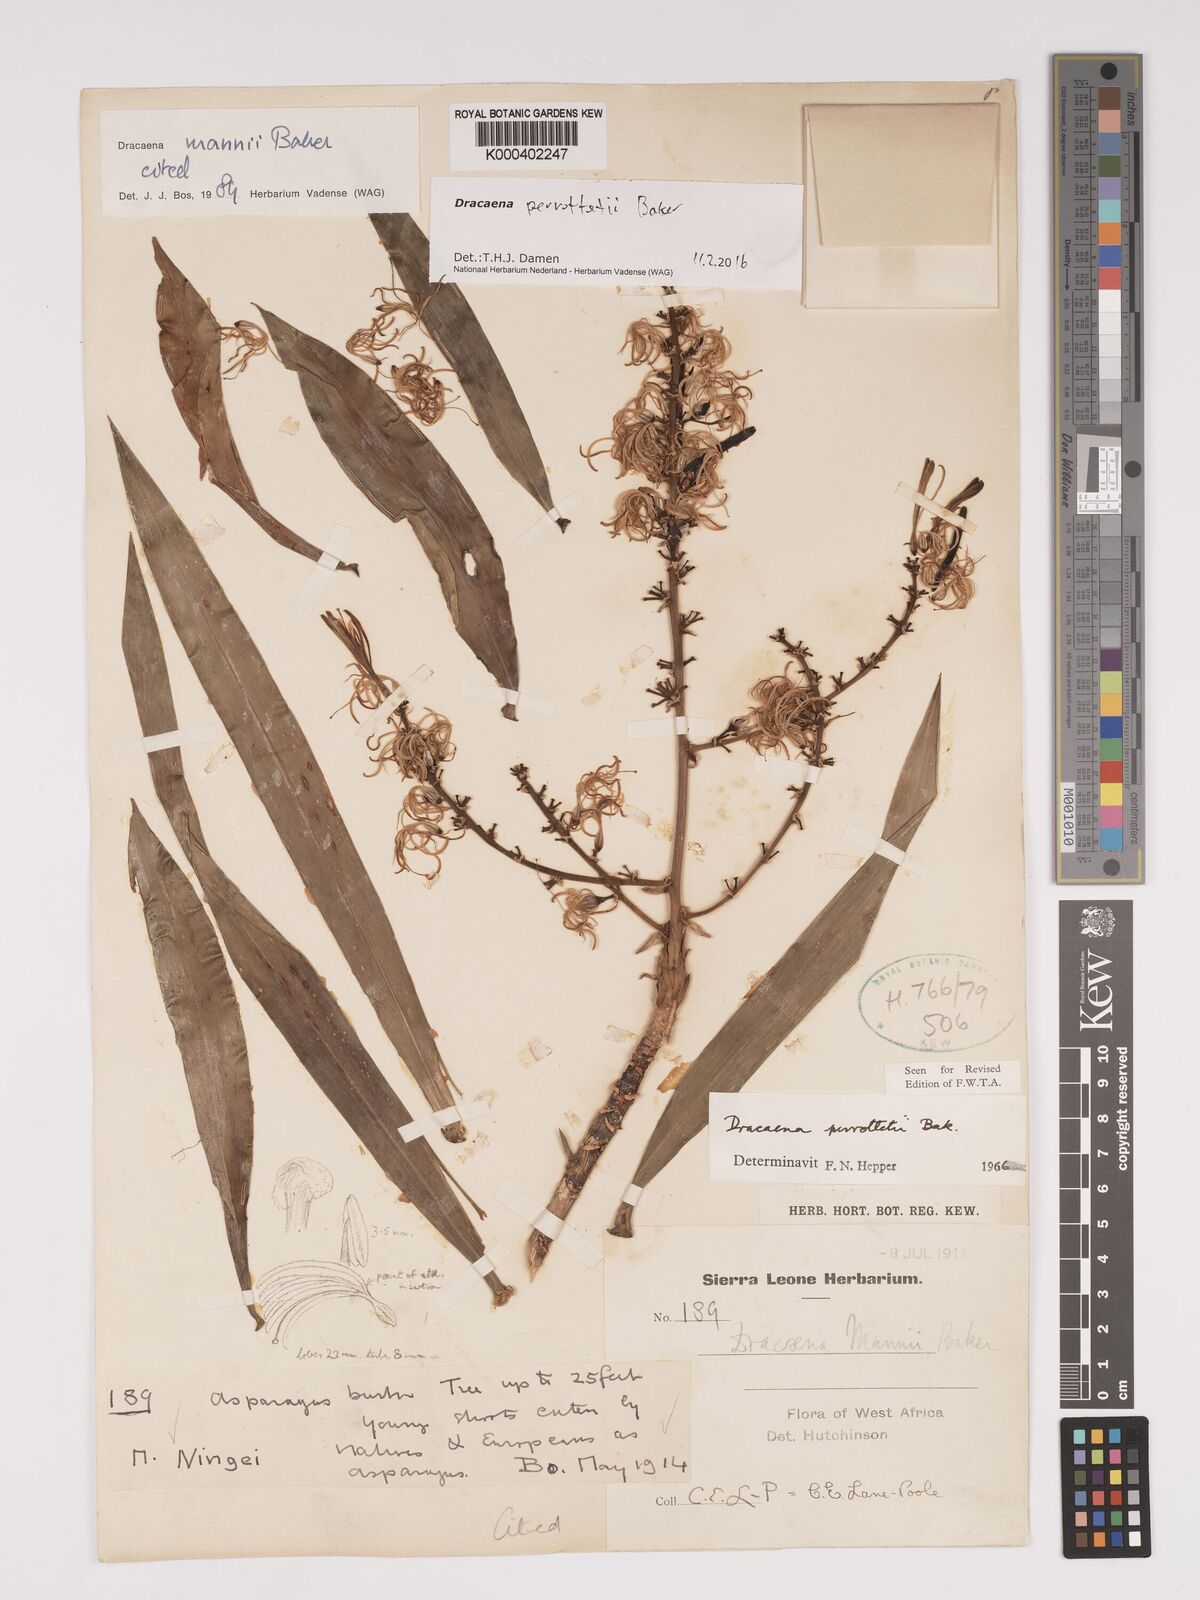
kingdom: Plantae
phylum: Tracheophyta
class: Liliopsida
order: Asparagales
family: Asparagaceae
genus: Dracaena
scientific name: Dracaena perrottetii
